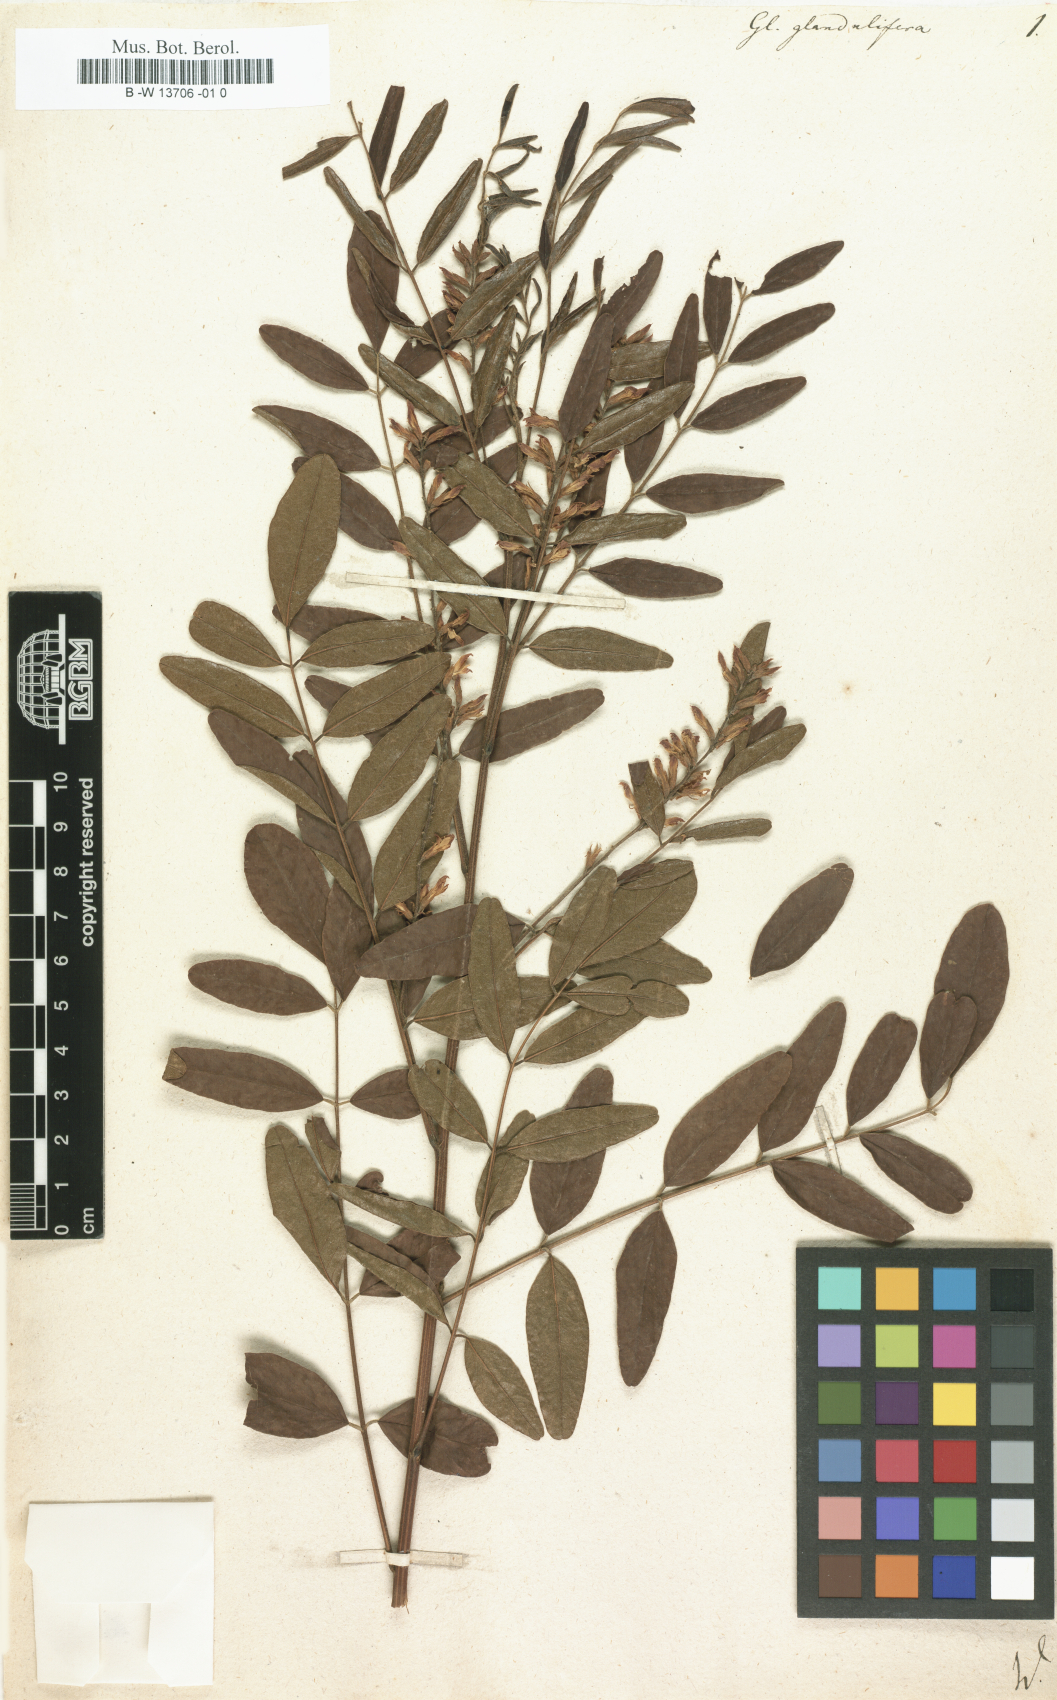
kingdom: Plantae
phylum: Tracheophyta
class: Magnoliopsida
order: Fabales
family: Fabaceae
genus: Glycyrrhiza
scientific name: Glycyrrhiza
